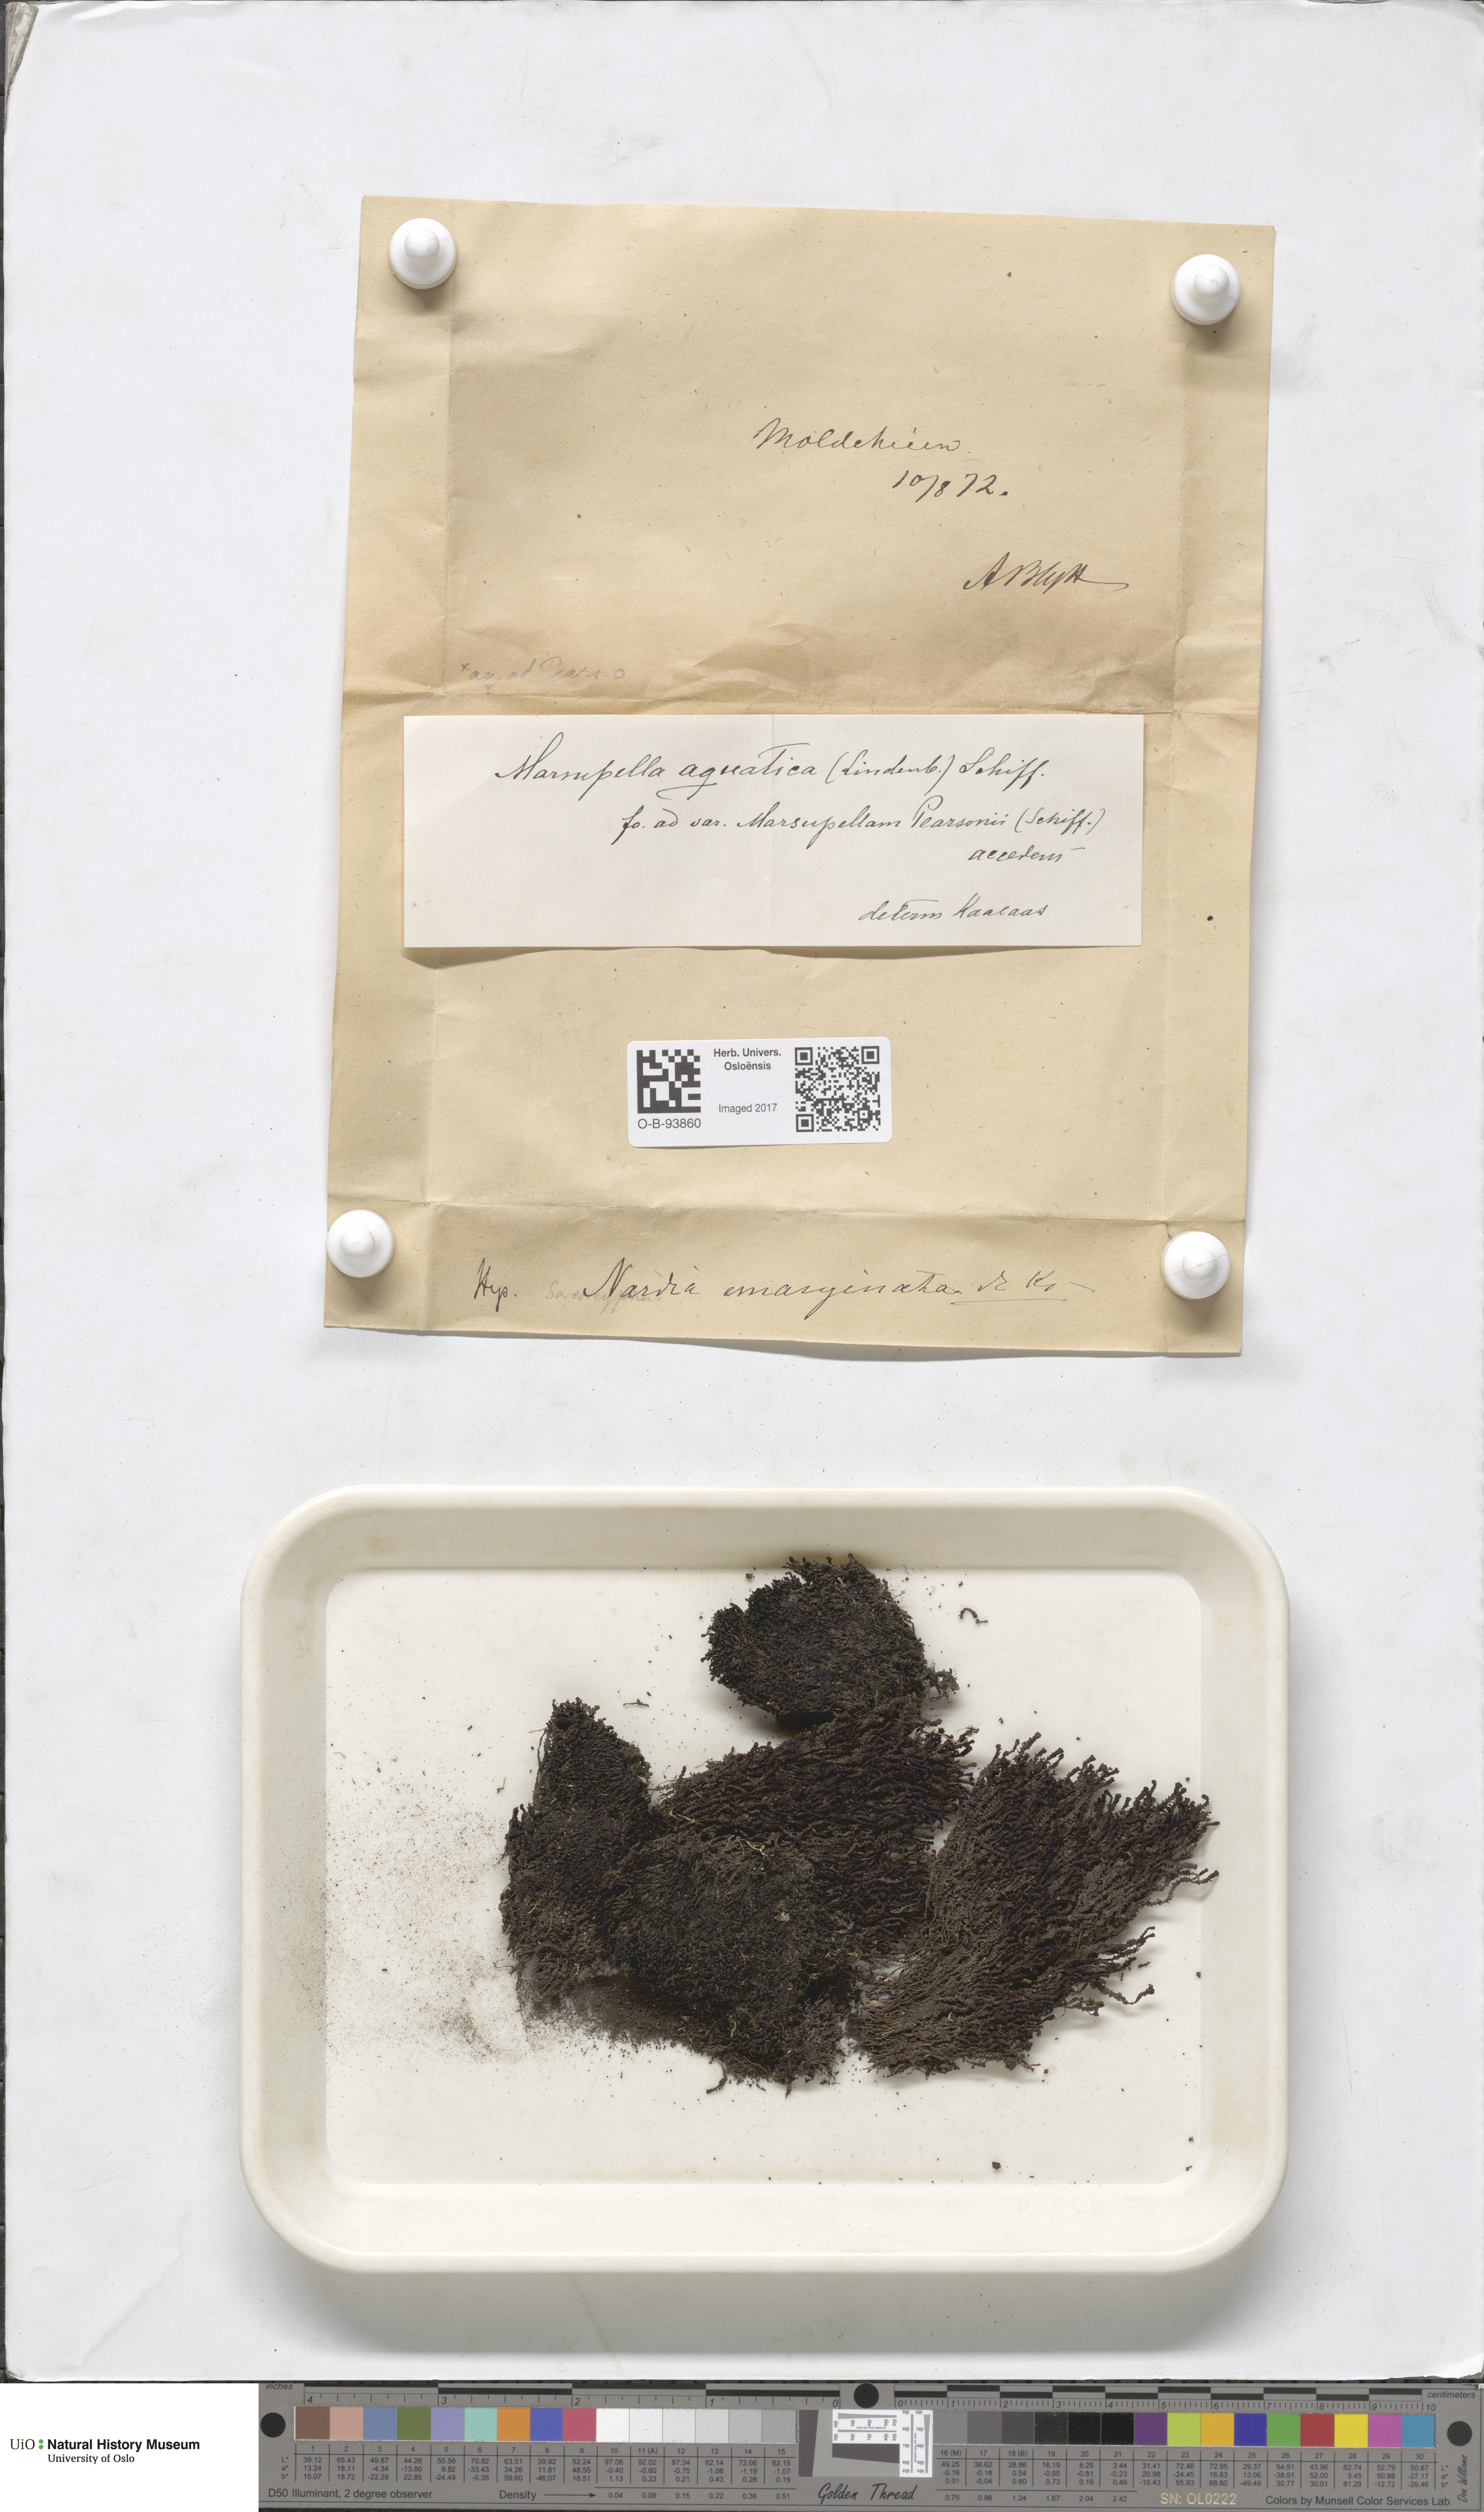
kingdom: Plantae
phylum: Marchantiophyta
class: Jungermanniopsida
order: Jungermanniales
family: Gymnomitriaceae
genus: Marsupella
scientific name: Marsupella emarginata
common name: Notched rustwort
